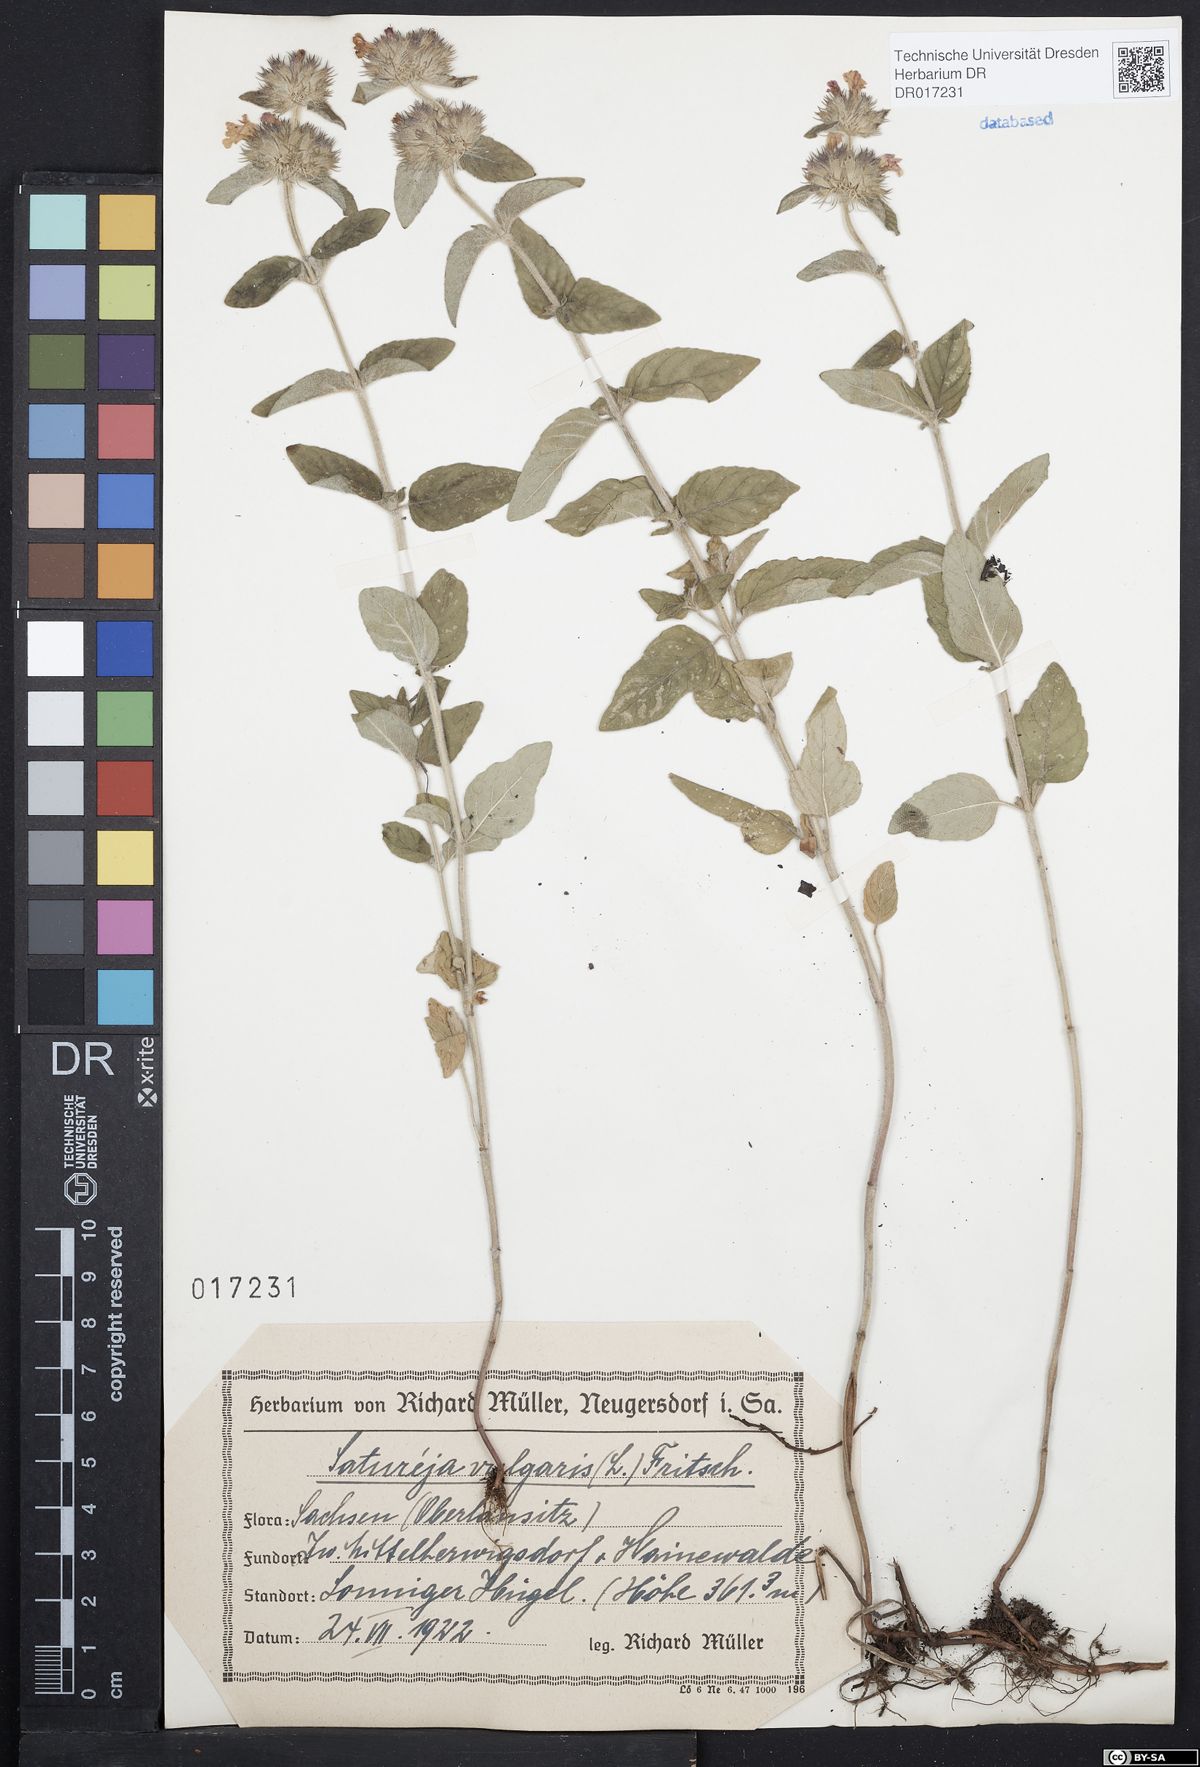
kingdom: Plantae
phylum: Tracheophyta
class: Magnoliopsida
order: Lamiales
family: Lamiaceae
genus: Clinopodium
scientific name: Clinopodium vulgare
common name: Wild basil
